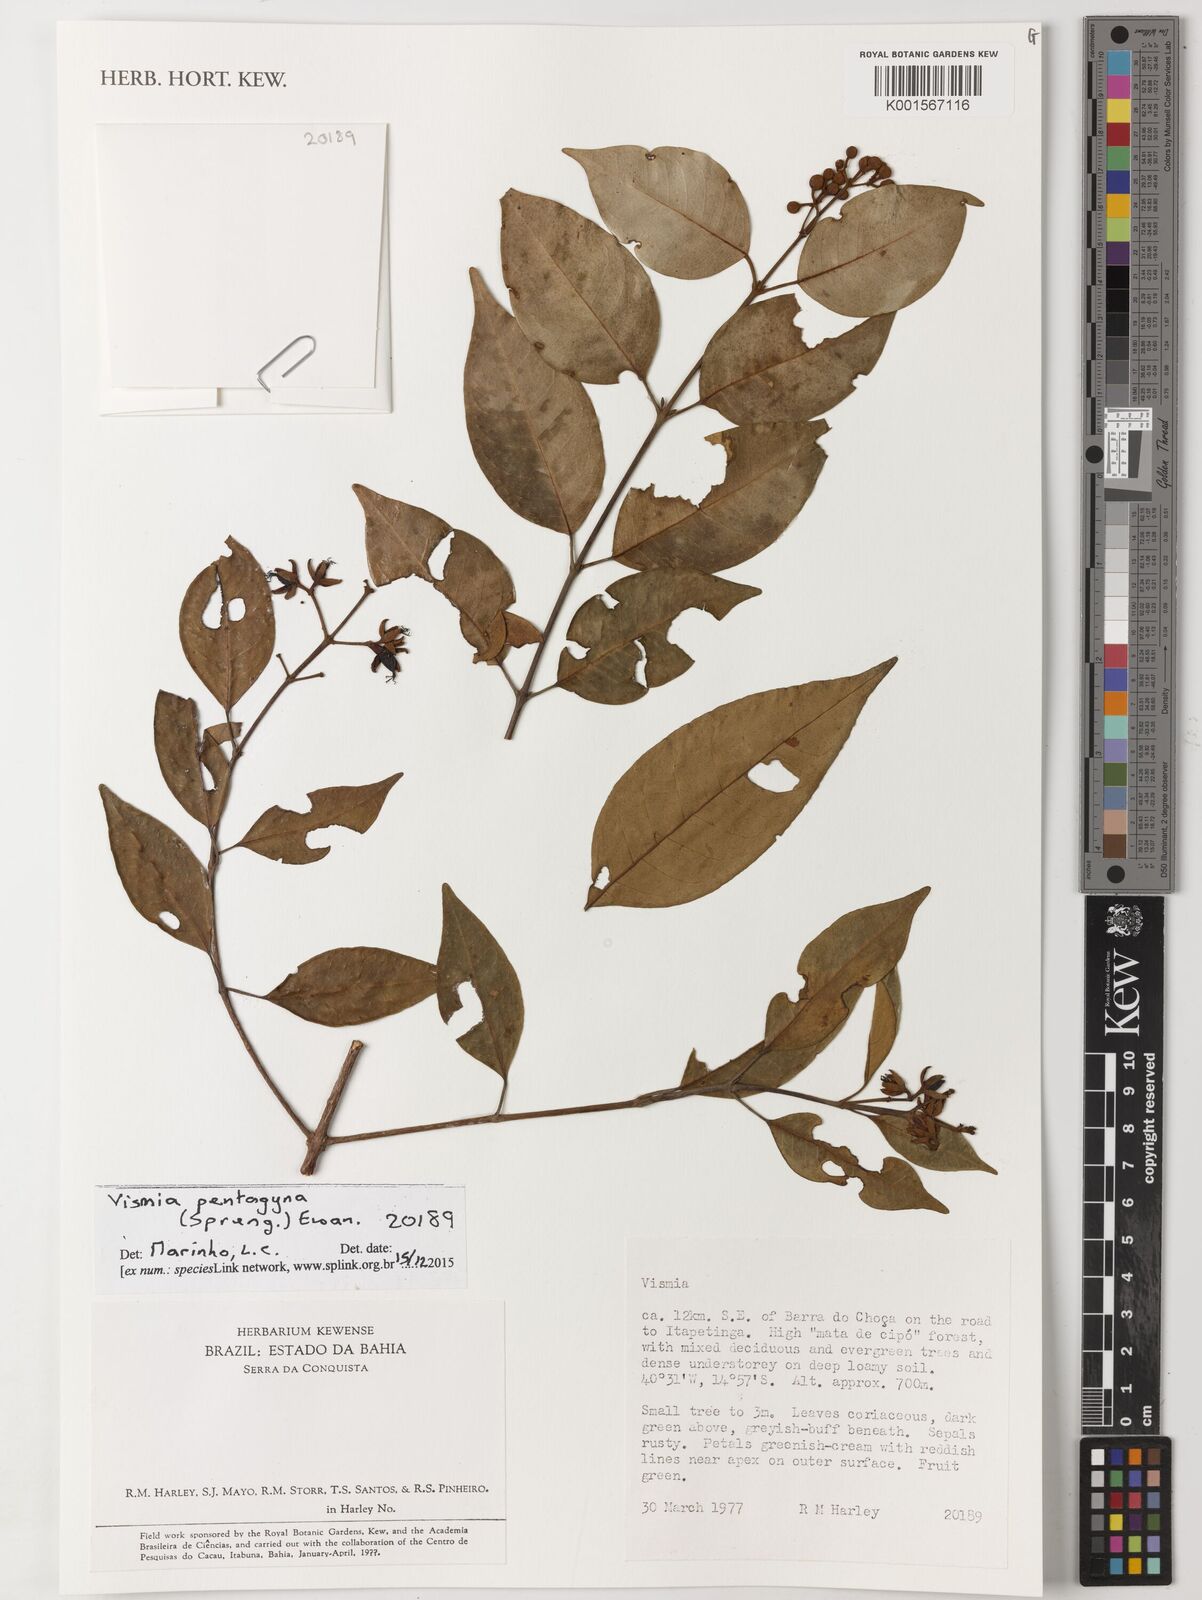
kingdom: Plantae
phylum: Tracheophyta
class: Magnoliopsida
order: Malpighiales
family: Hypericaceae
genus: Vismia
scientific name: Vismia pentagyna
